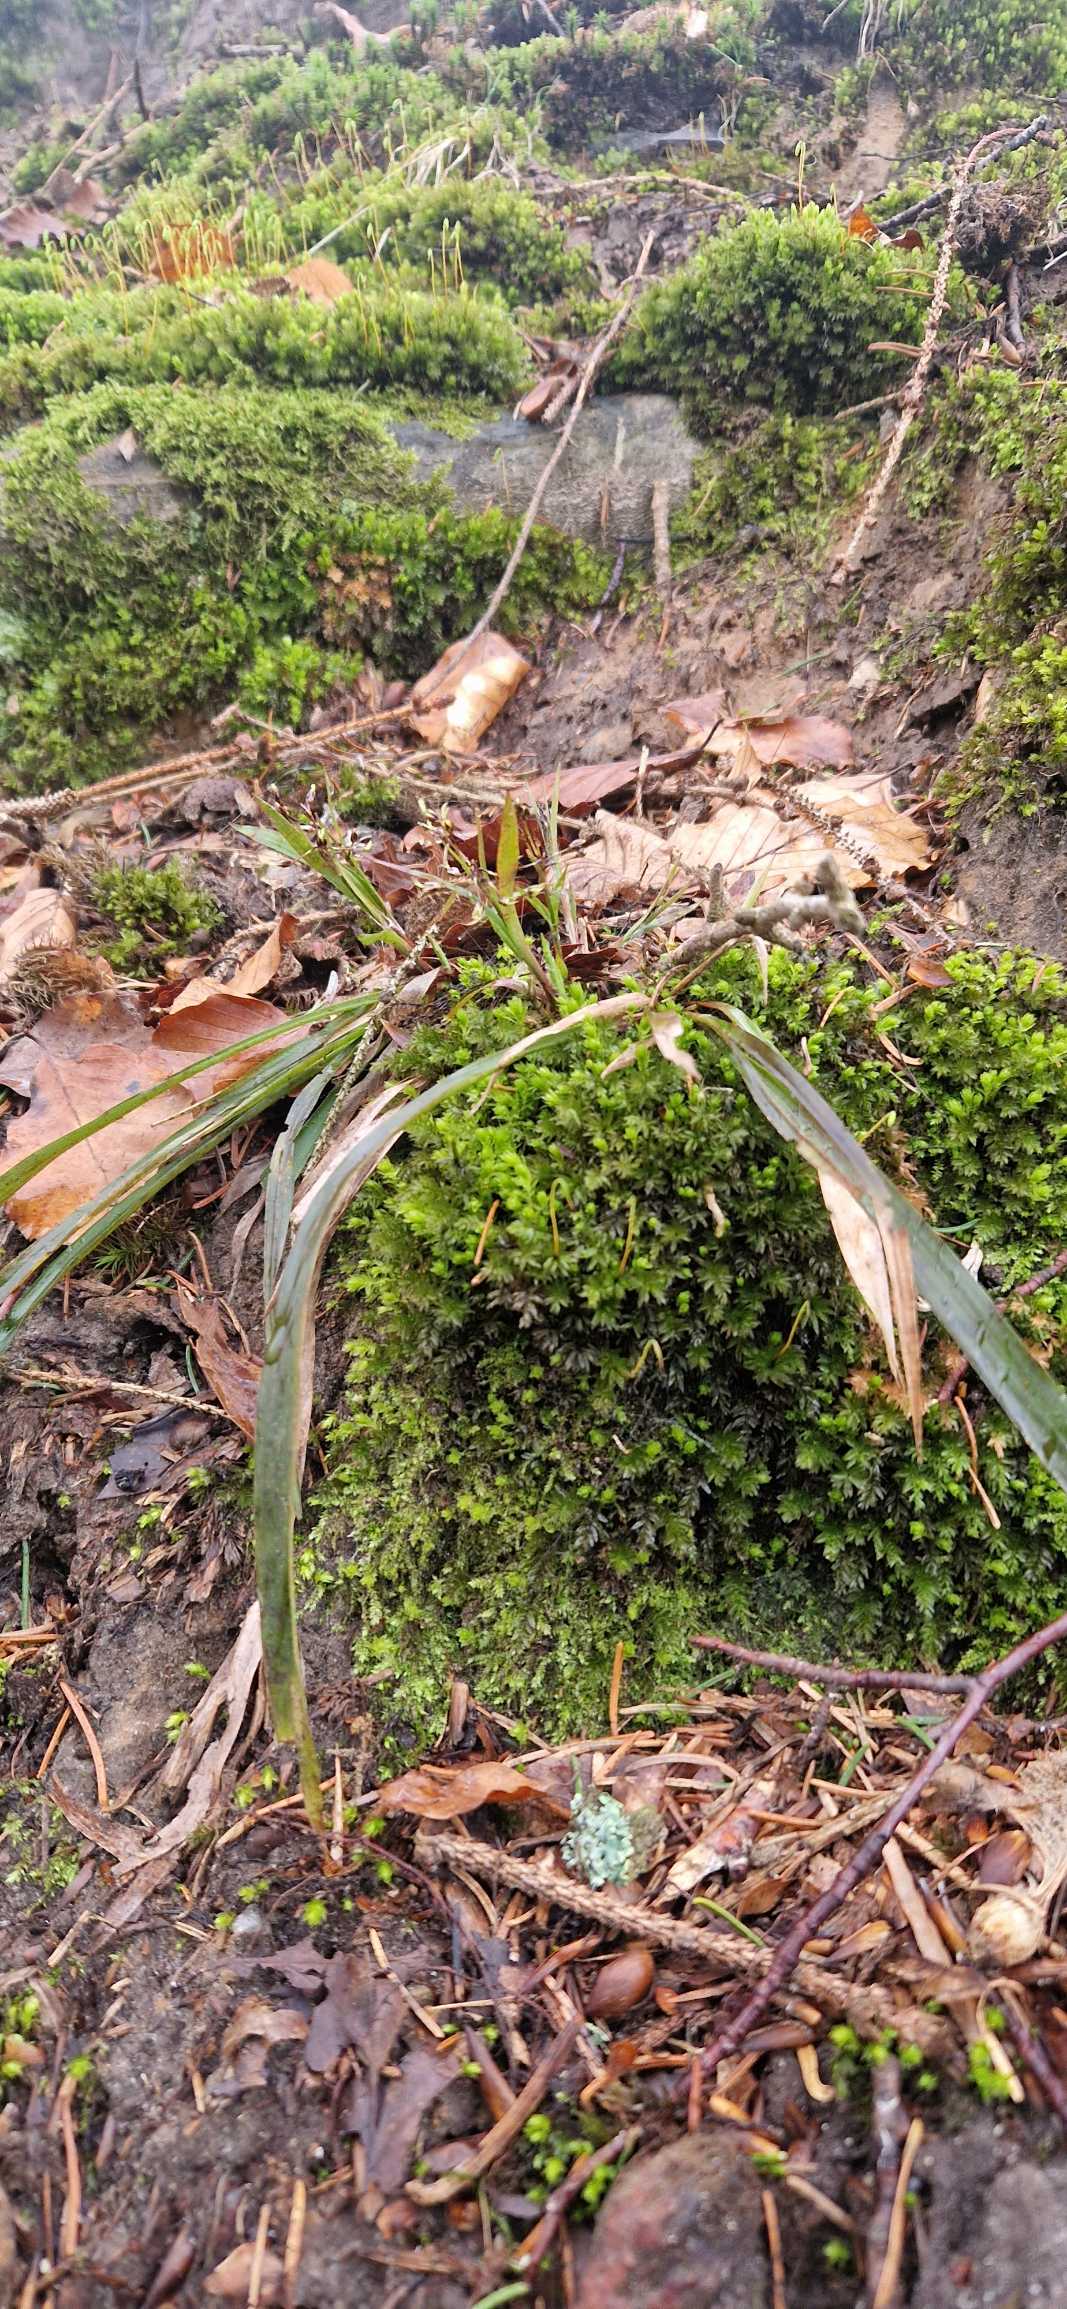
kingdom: Plantae
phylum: Tracheophyta
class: Liliopsida
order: Poales
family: Juncaceae
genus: Luzula
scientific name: Luzula pilosa
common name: Håret frytle
